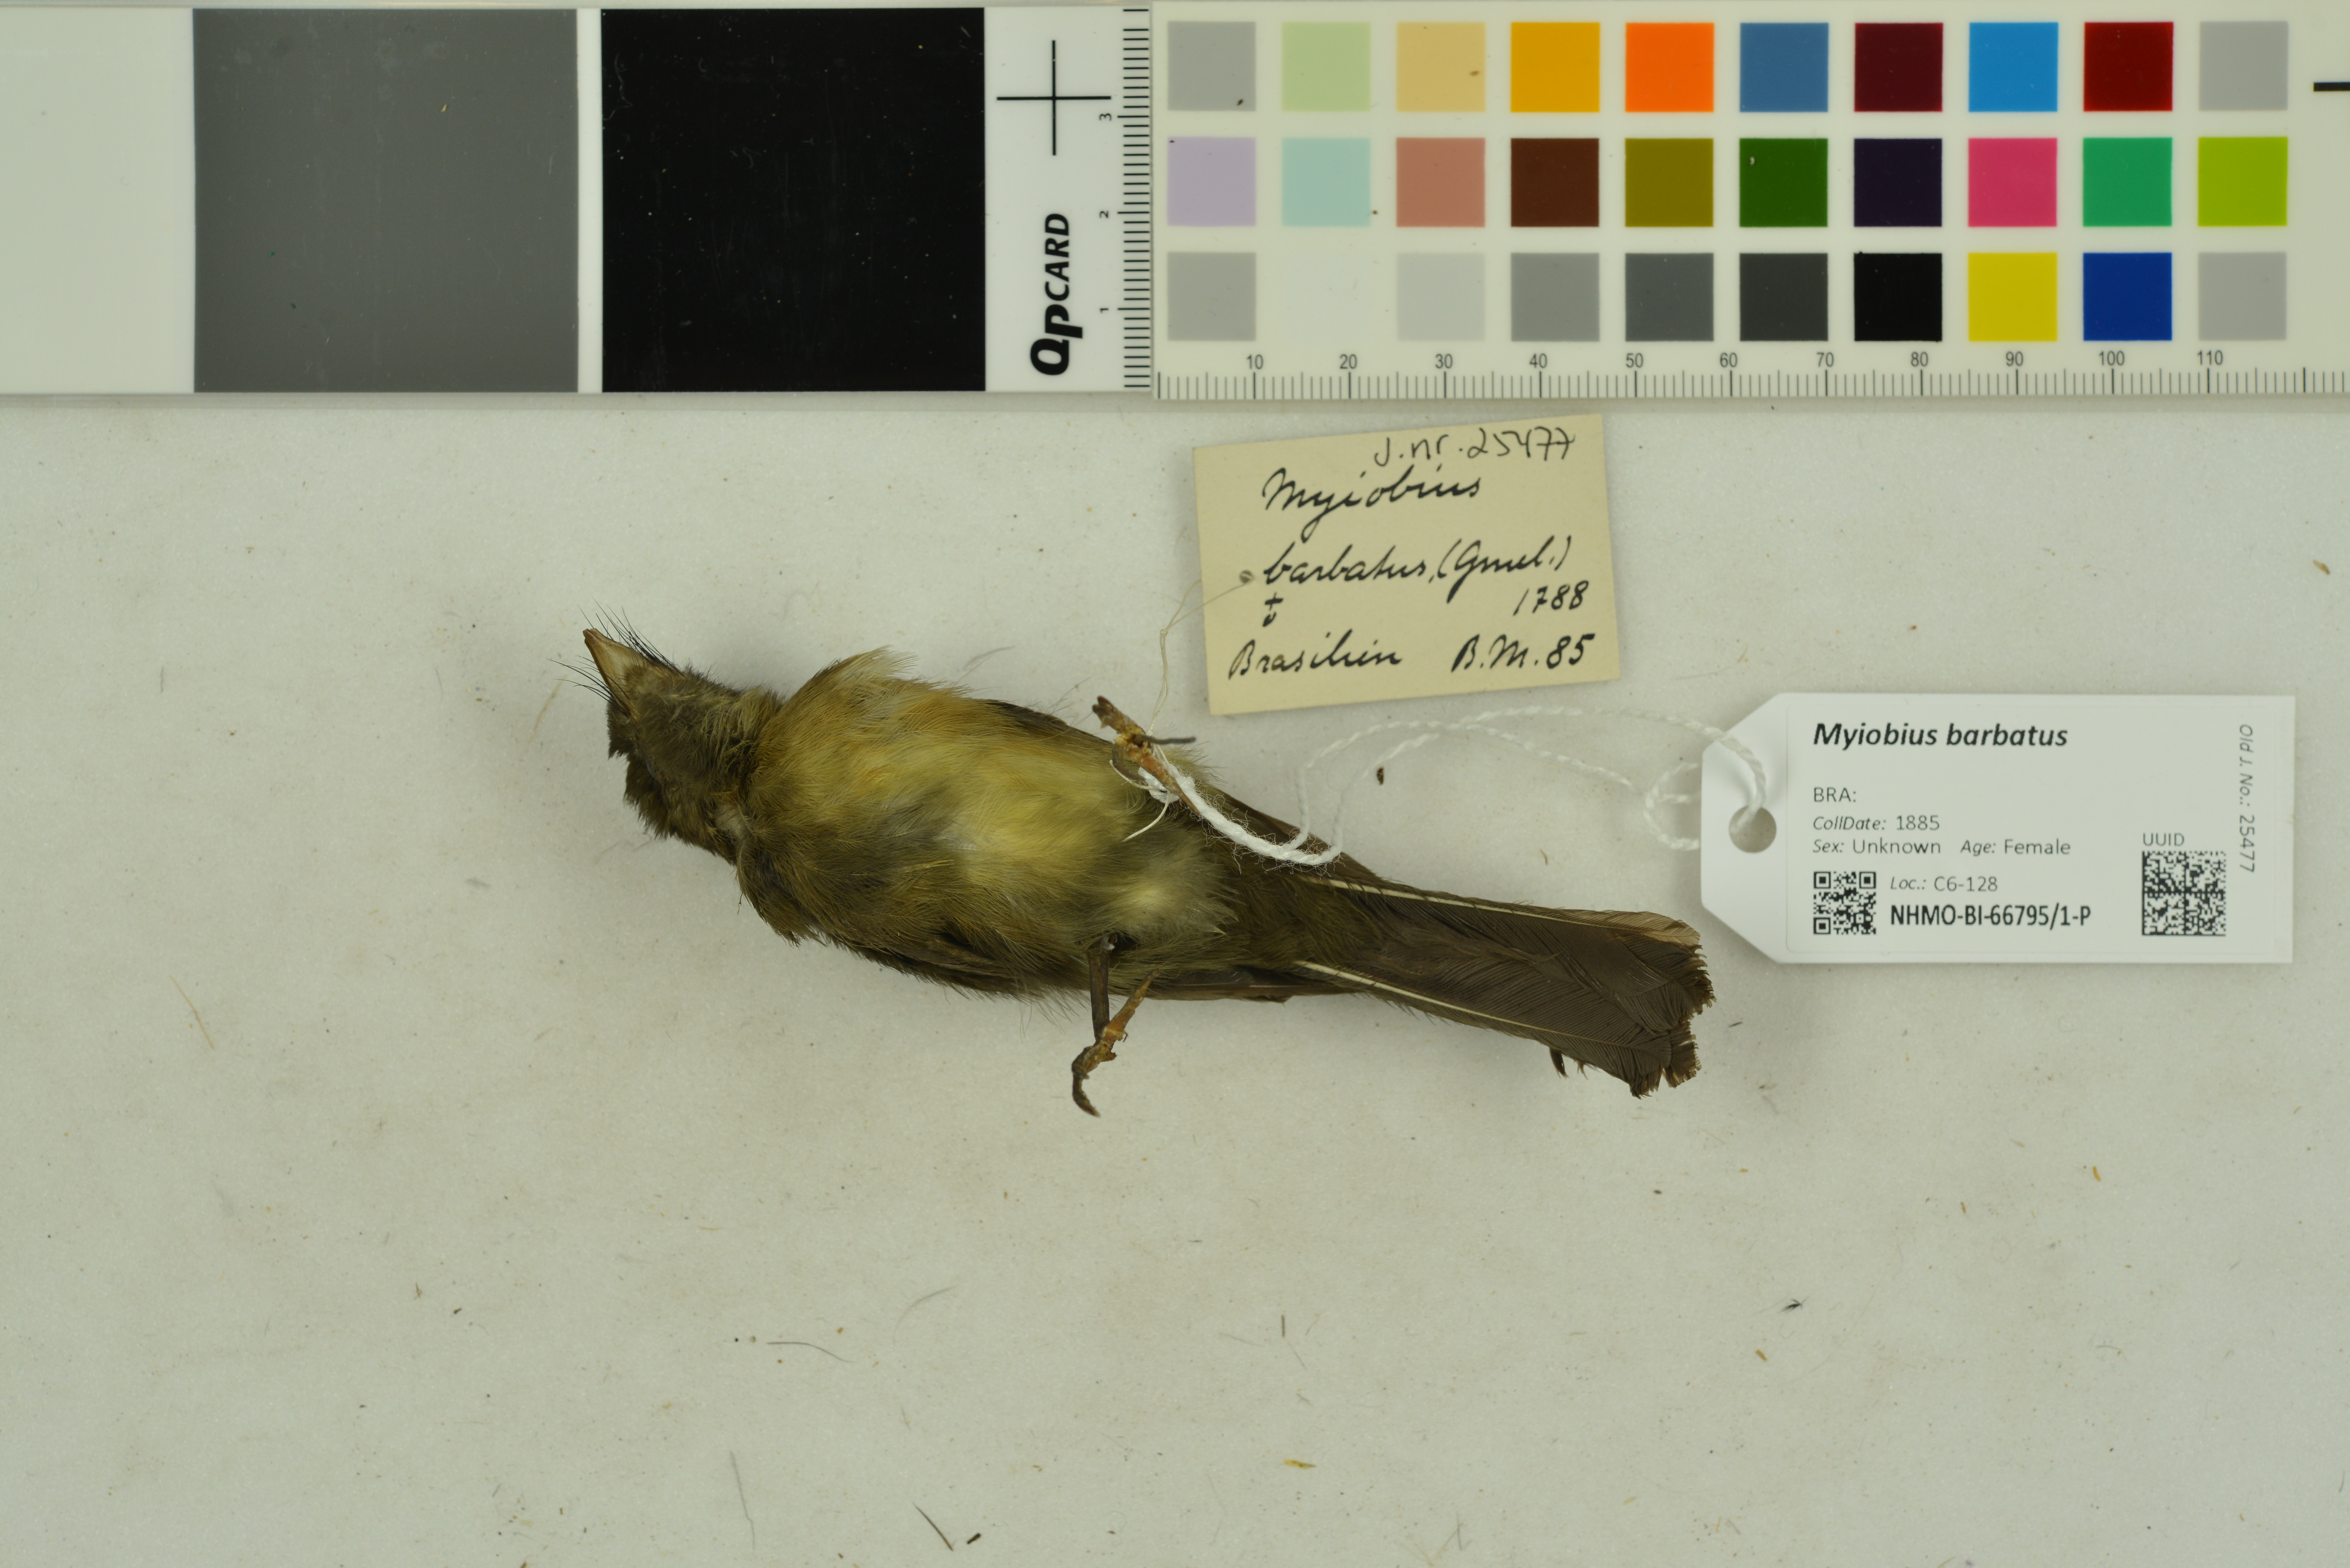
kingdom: Animalia
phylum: Chordata
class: Aves
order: Passeriformes
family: Tyrannidae
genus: Myiobius
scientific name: Myiobius barbatus
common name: Whiskered myiobius
